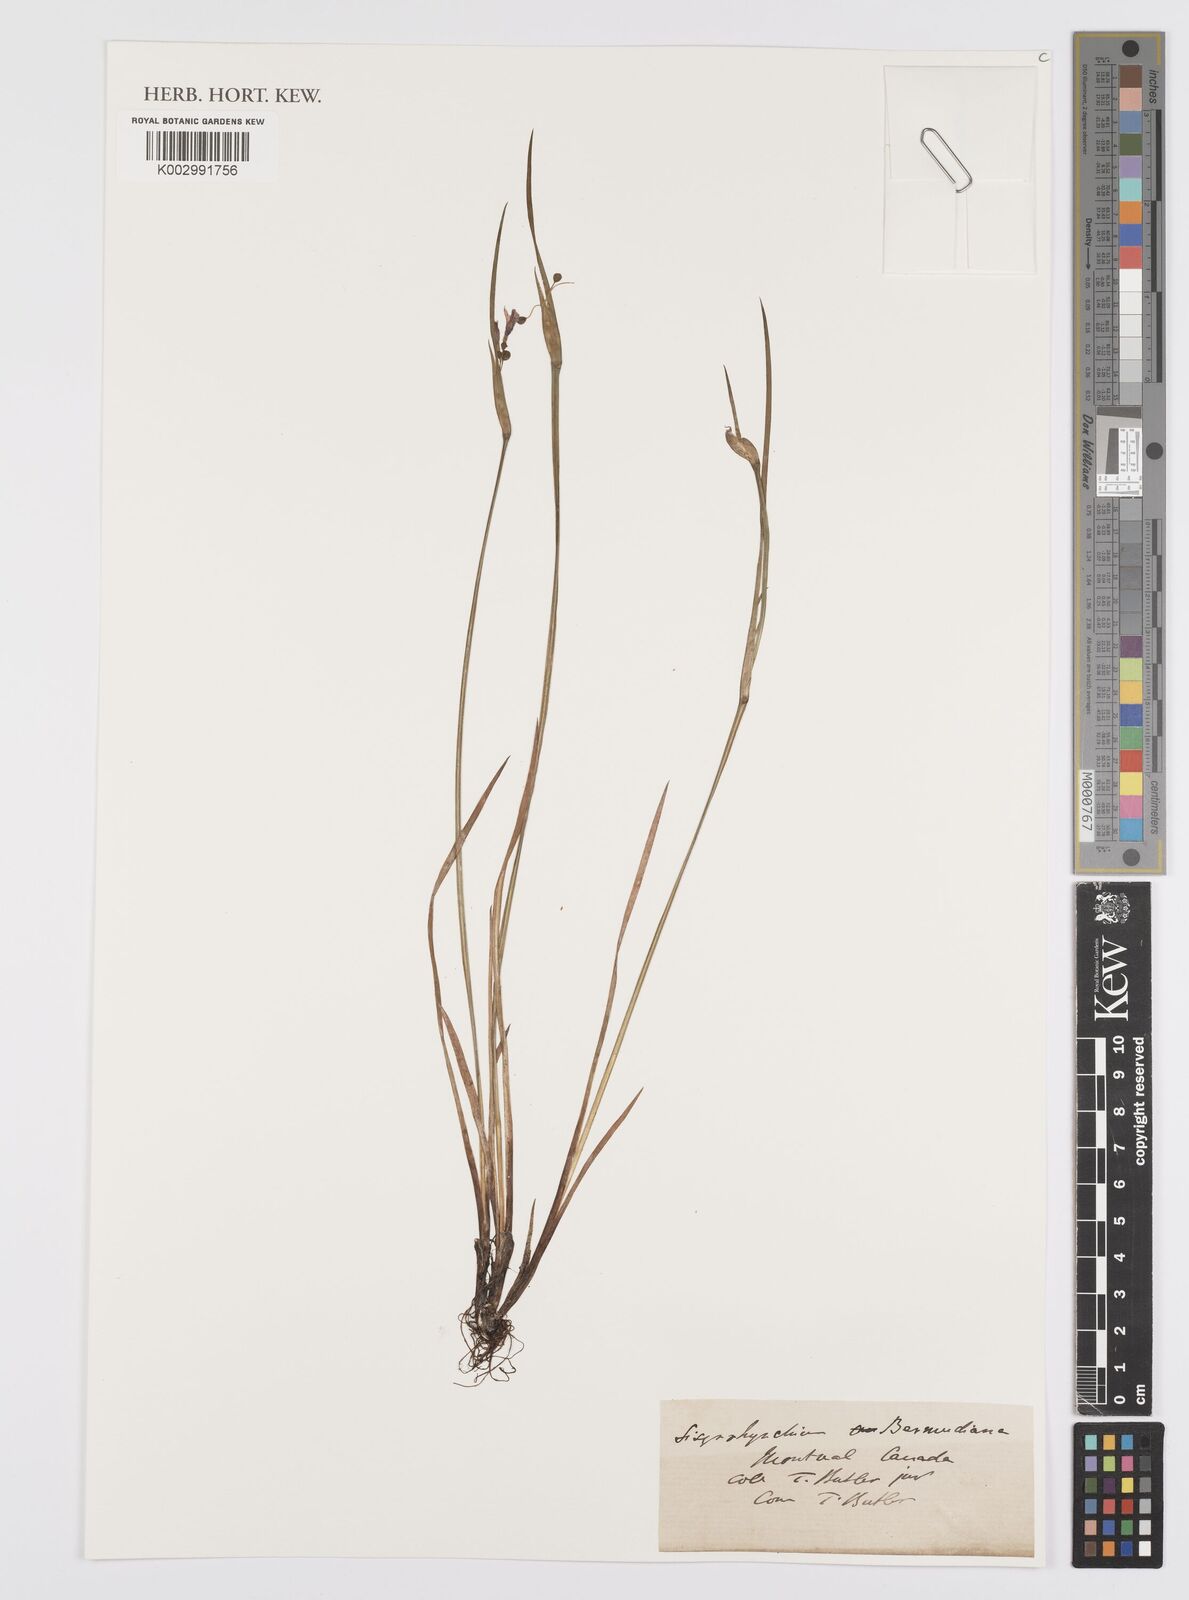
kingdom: Plantae
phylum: Tracheophyta
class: Liliopsida
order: Asparagales
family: Iridaceae
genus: Sisyrinchium
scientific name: Sisyrinchium bermudiana
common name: Blue-eyed-grass
